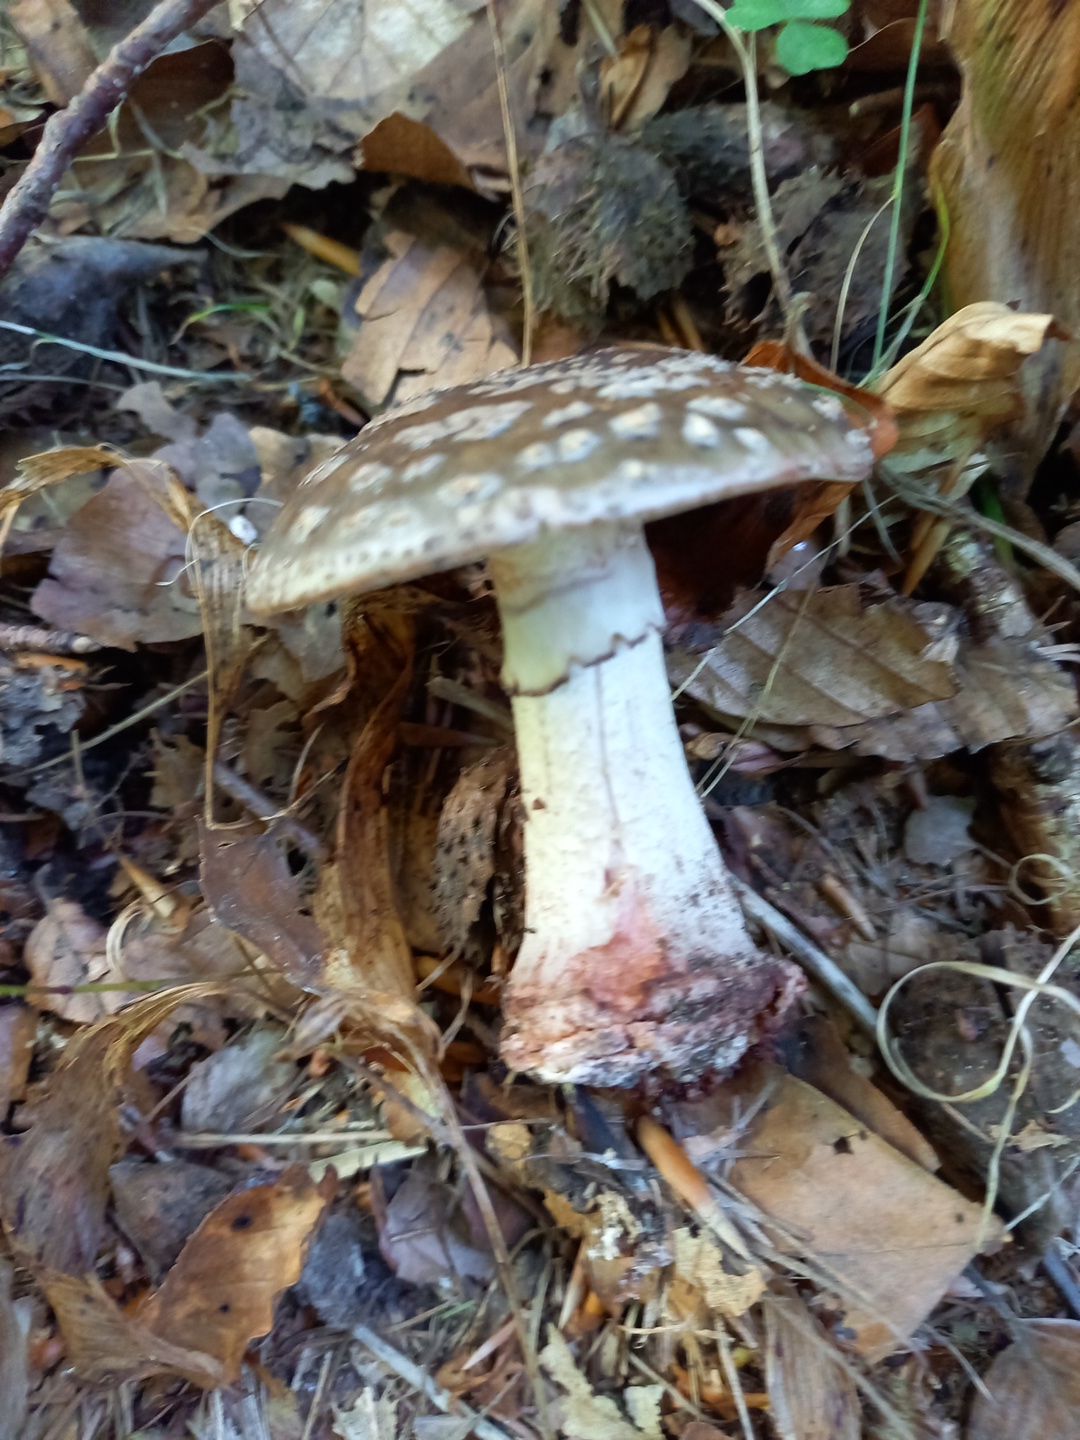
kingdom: Fungi
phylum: Basidiomycota
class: Agaricomycetes
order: Agaricales
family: Amanitaceae
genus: Amanita
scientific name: Amanita rubescens
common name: rødmende fluesvamp
